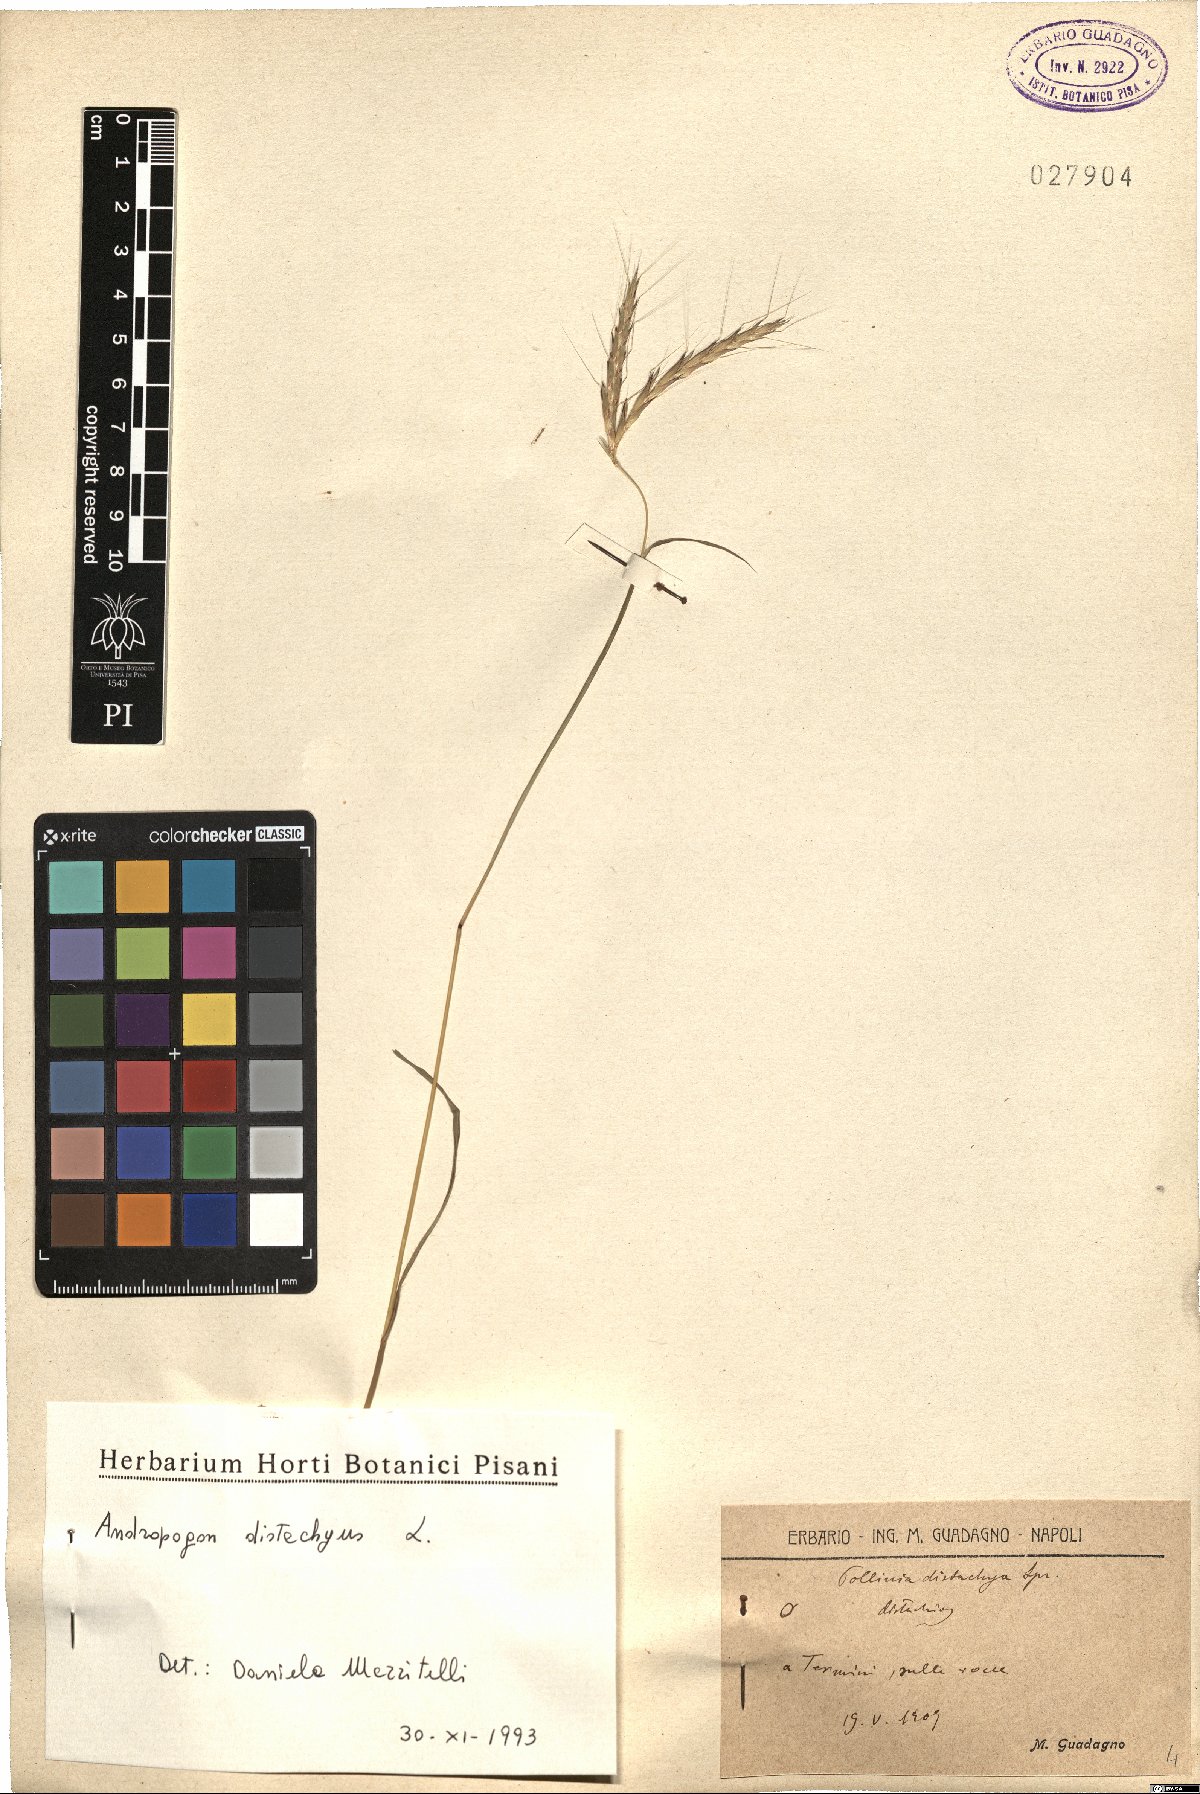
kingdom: Plantae
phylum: Tracheophyta
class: Liliopsida
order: Poales
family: Poaceae
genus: Andropogon
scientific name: Andropogon distachyos
